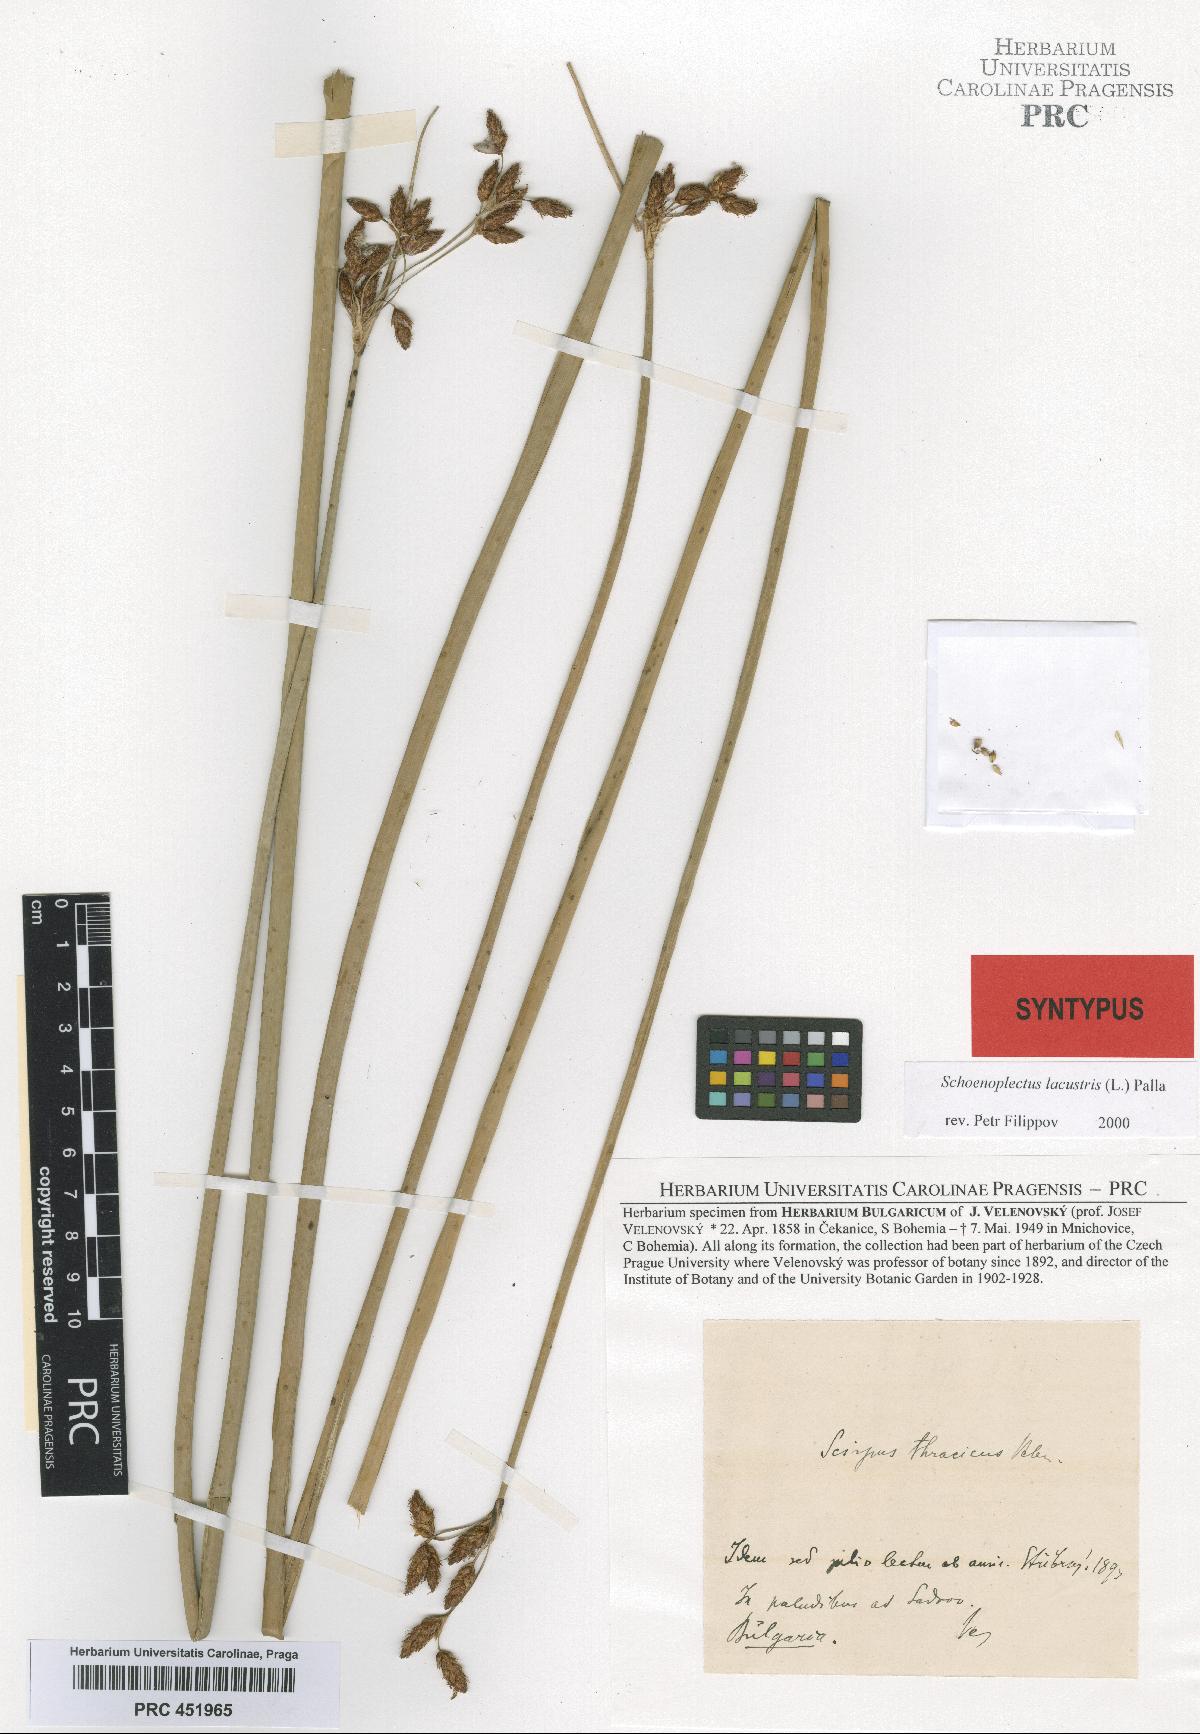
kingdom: Plantae
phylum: Tracheophyta
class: Liliopsida
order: Poales
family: Cyperaceae
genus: Schoenoplectus
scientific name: Schoenoplectus lacustris
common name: Common club-rush
